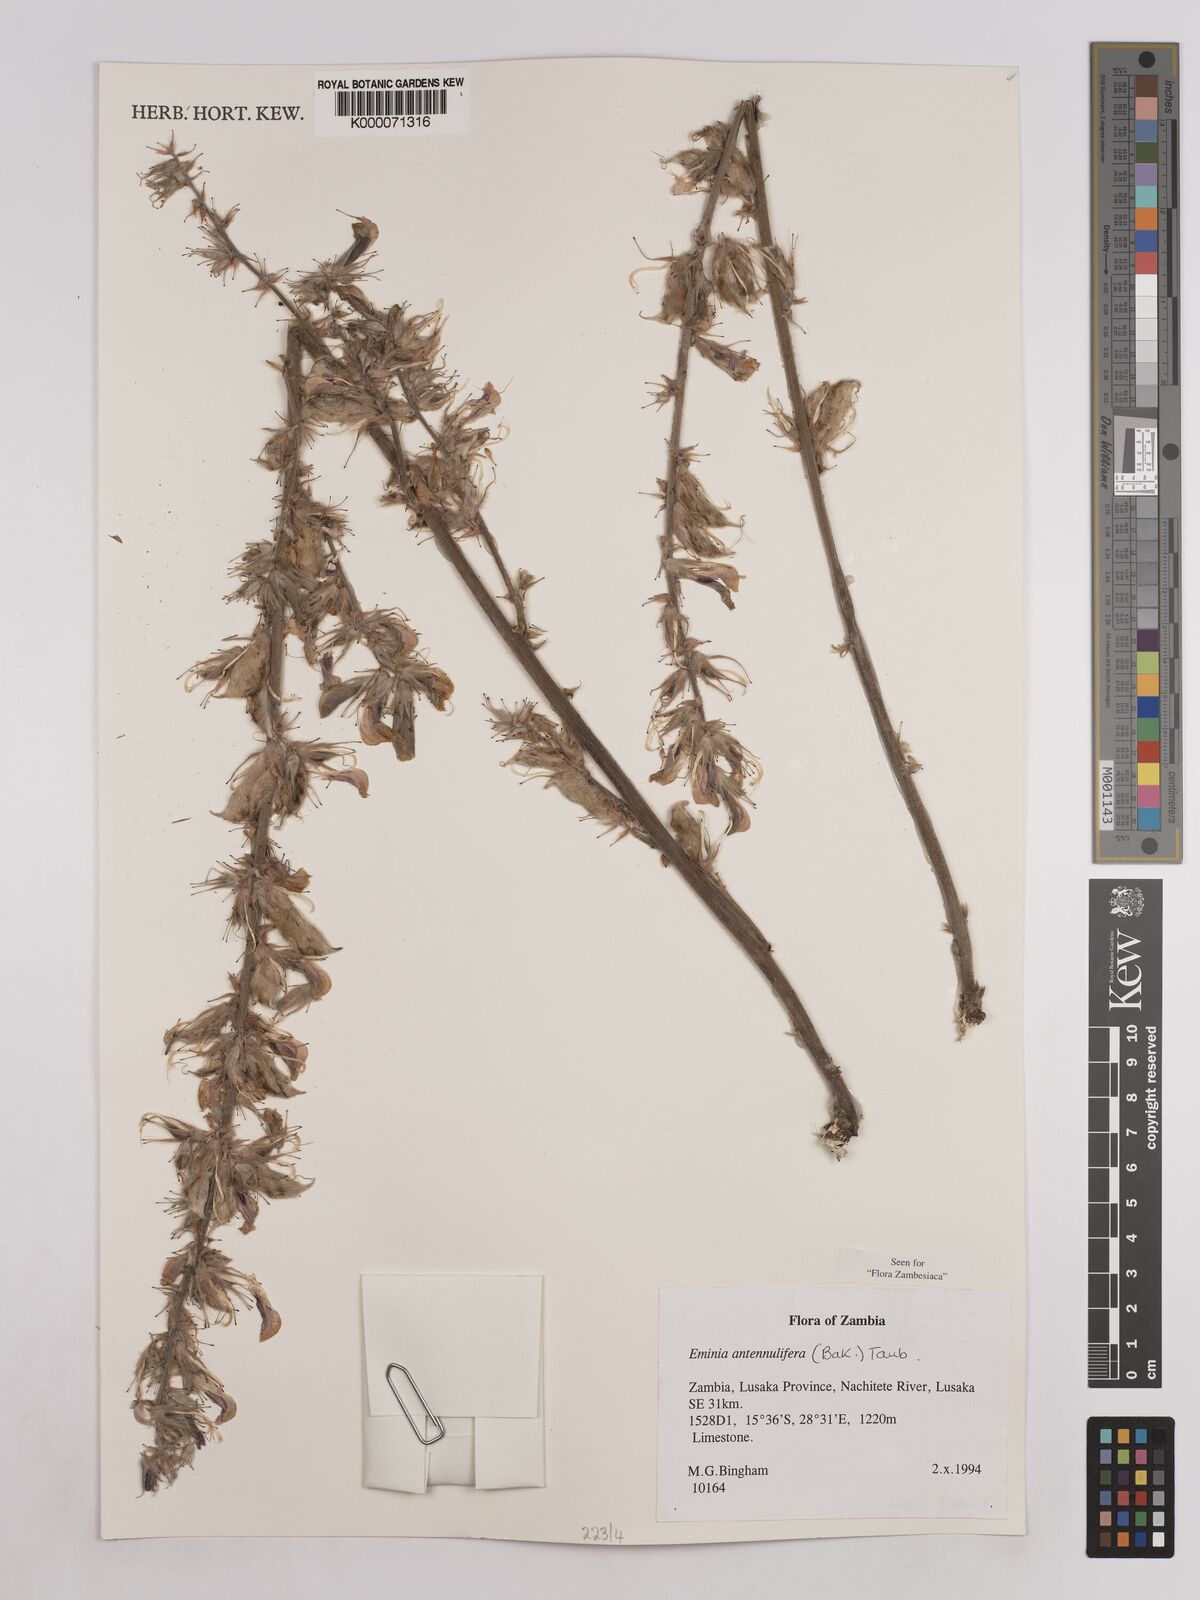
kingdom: Plantae
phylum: Tracheophyta
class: Magnoliopsida
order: Fabales
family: Fabaceae
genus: Eminia
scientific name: Eminia antennulifera
